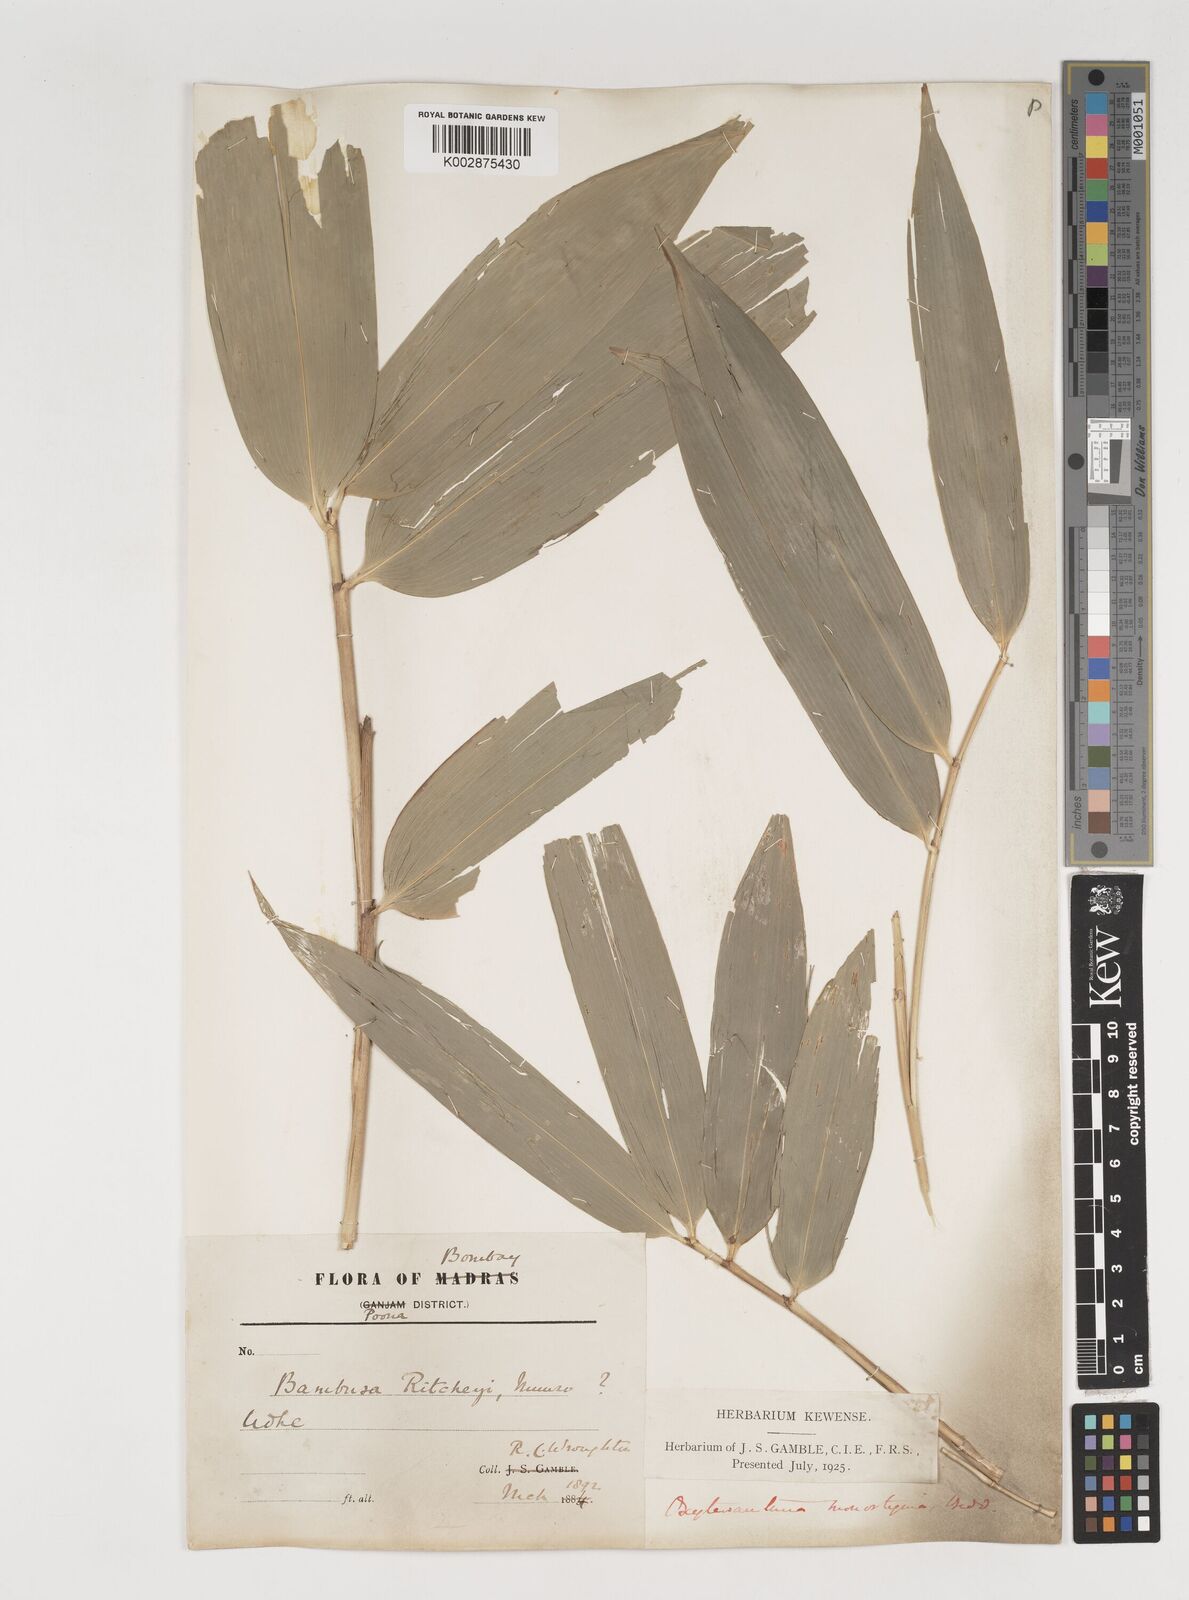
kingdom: Plantae
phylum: Tracheophyta
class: Liliopsida
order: Poales
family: Poaceae
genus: Dendrocalamus
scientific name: Dendrocalamus
